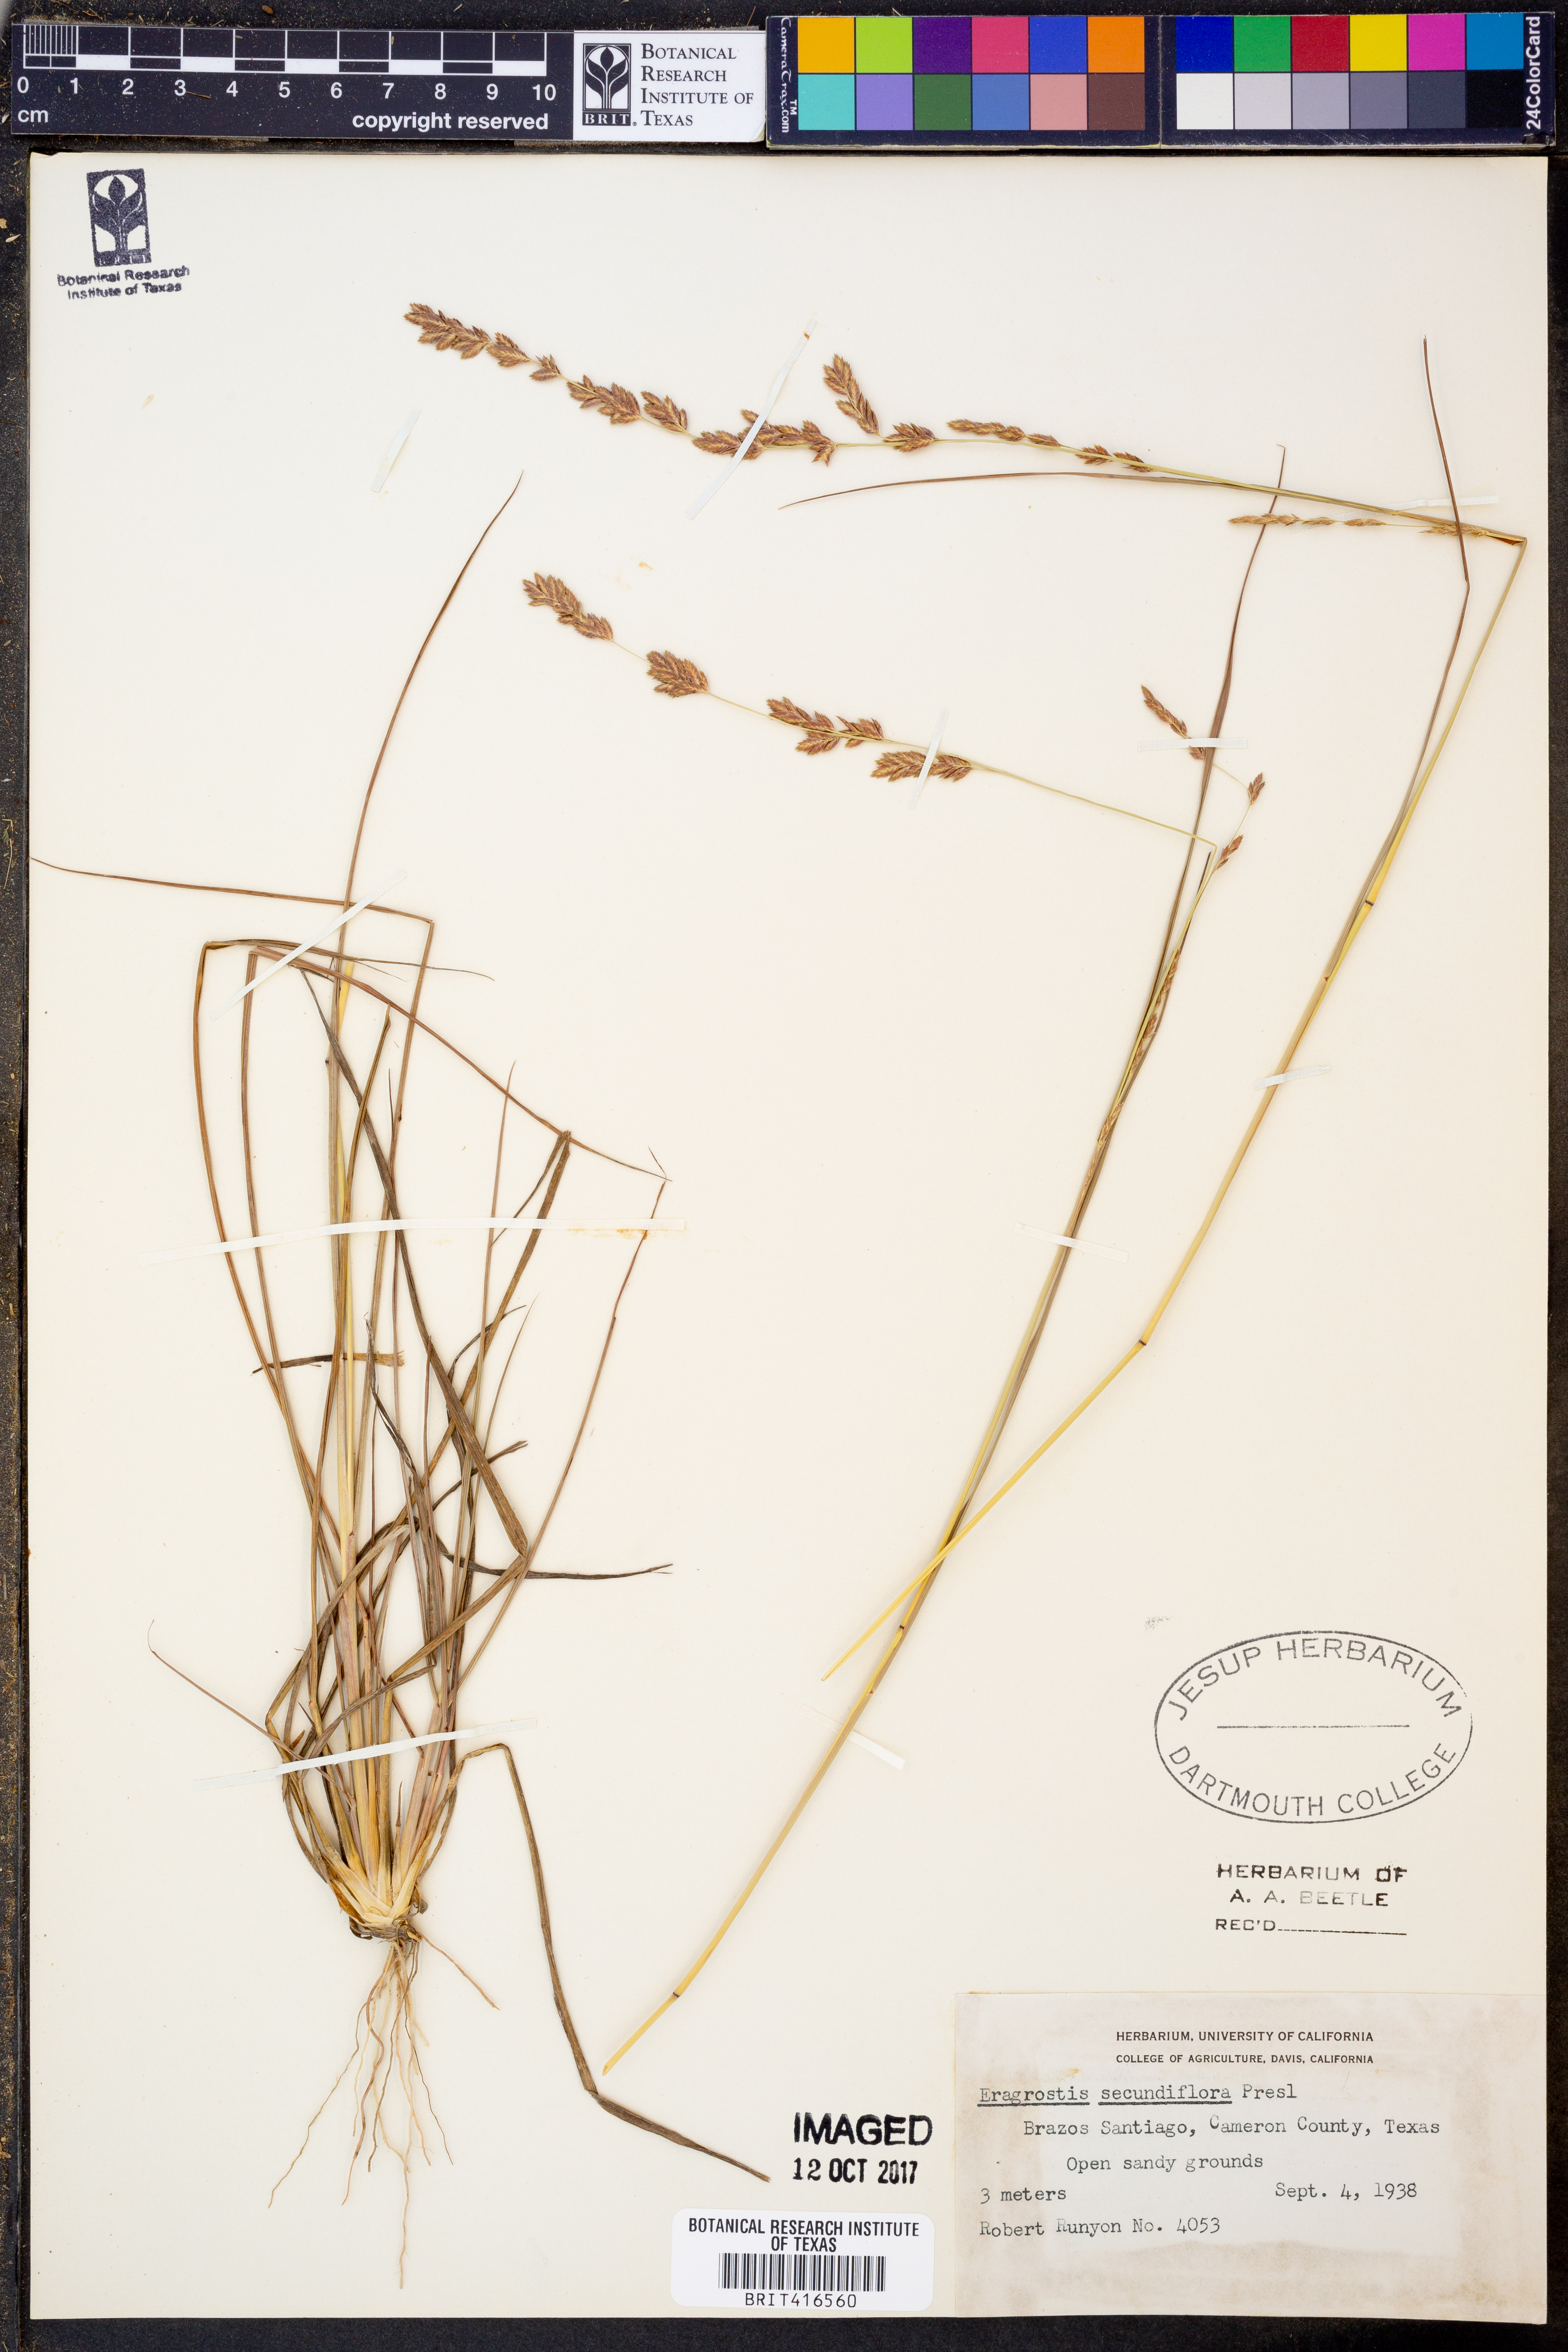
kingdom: Plantae
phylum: Tracheophyta
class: Liliopsida
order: Poales
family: Poaceae
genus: Eragrostis
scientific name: Eragrostis secundiflora
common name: Red love grass
